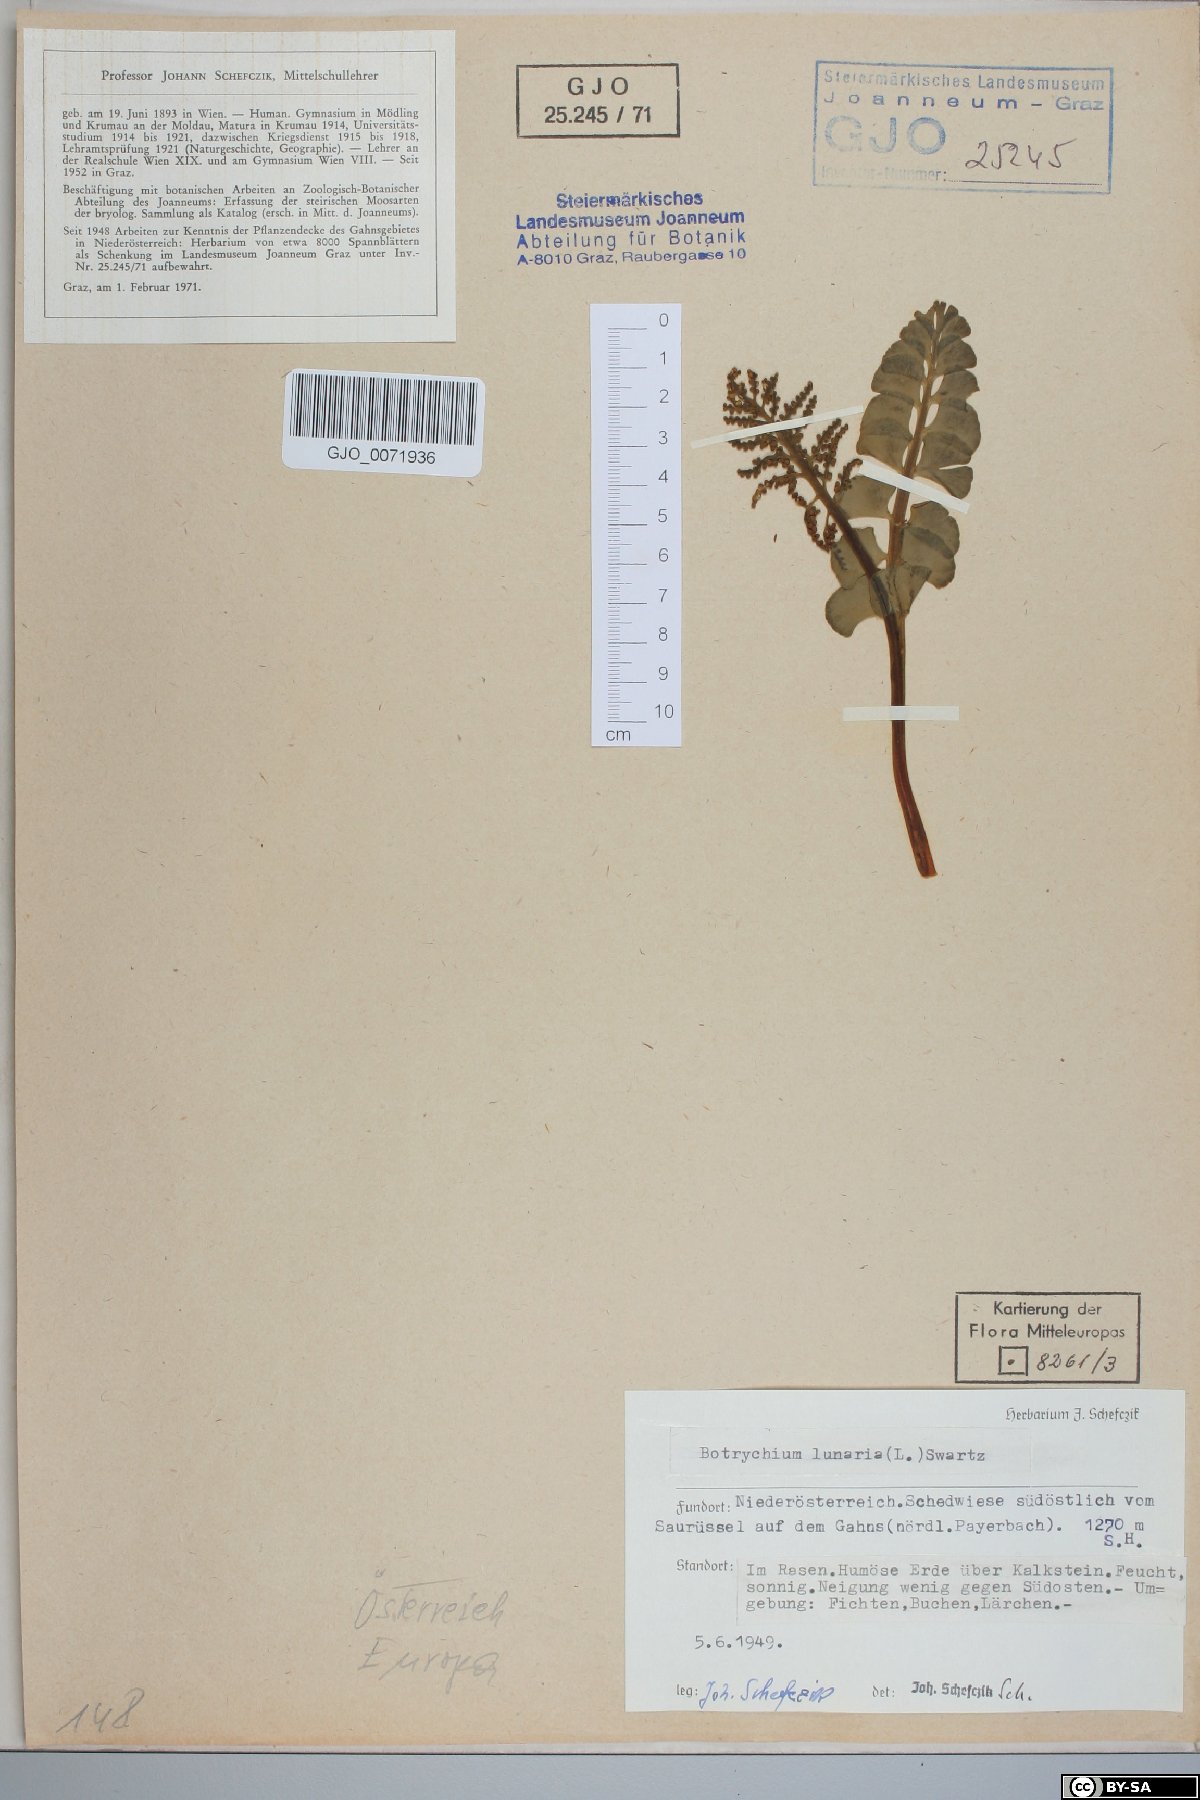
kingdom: Plantae
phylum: Tracheophyta
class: Polypodiopsida
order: Ophioglossales
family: Ophioglossaceae
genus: Botrychium
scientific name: Botrychium lunaria
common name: Moonwort
